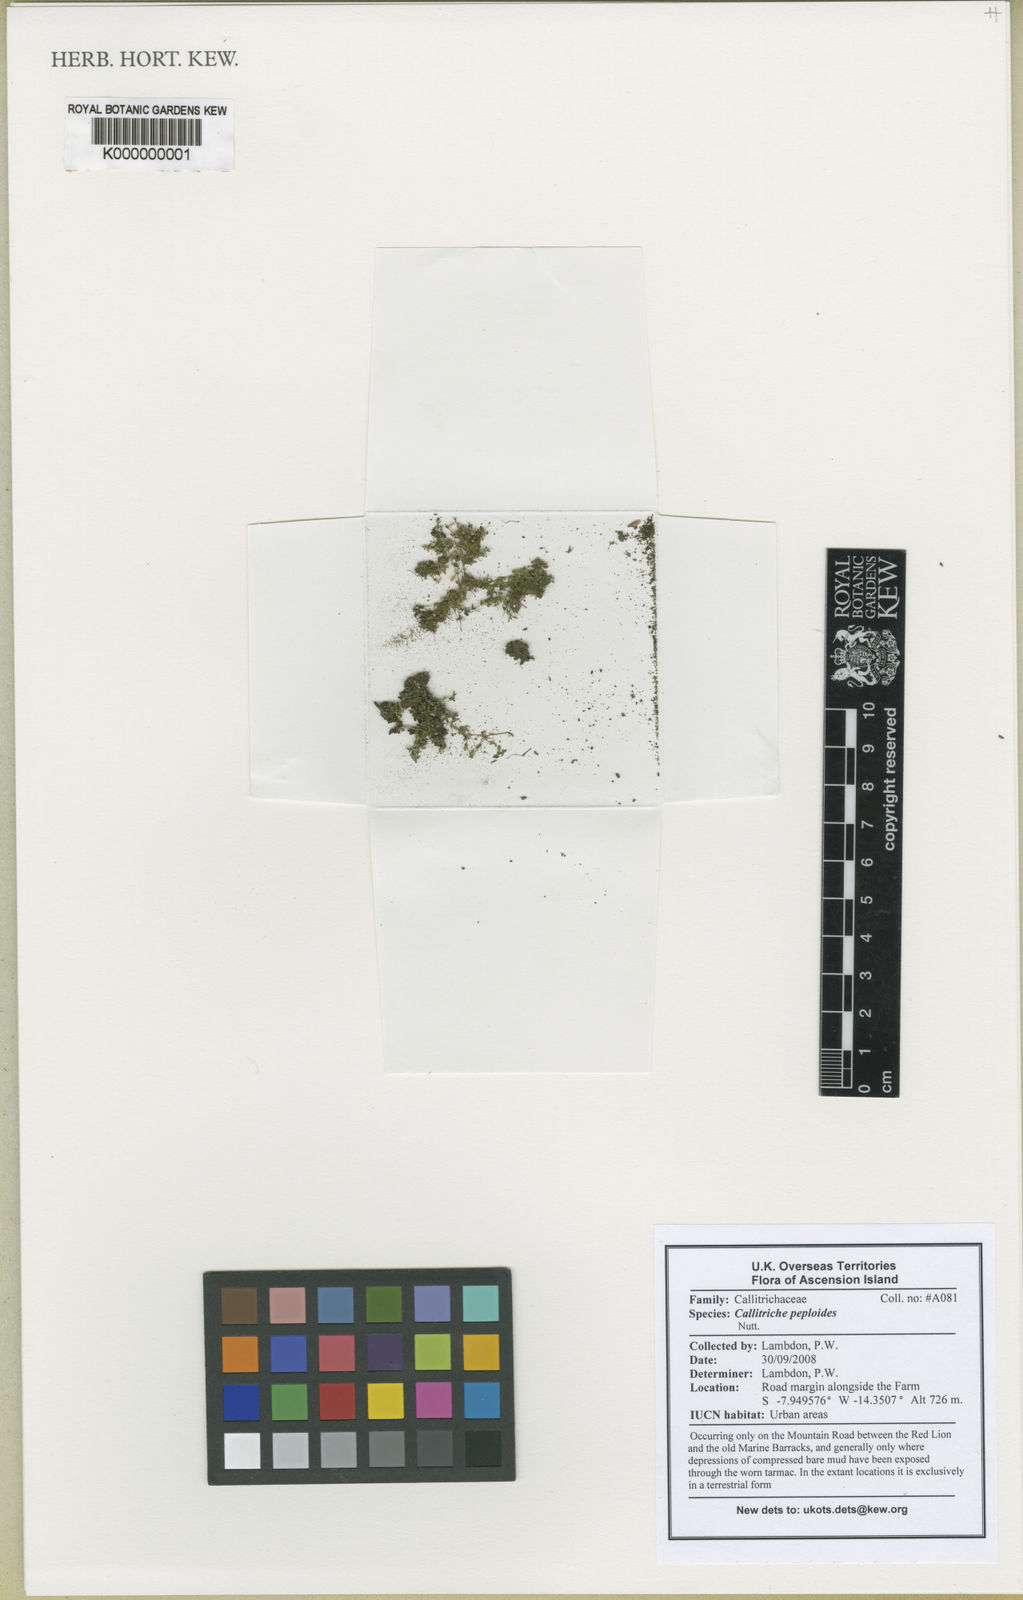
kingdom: Plantae
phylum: Tracheophyta
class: Magnoliopsida
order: Gentianales
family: Rubiaceae
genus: Canthiumera
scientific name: Canthiumera siamensis
